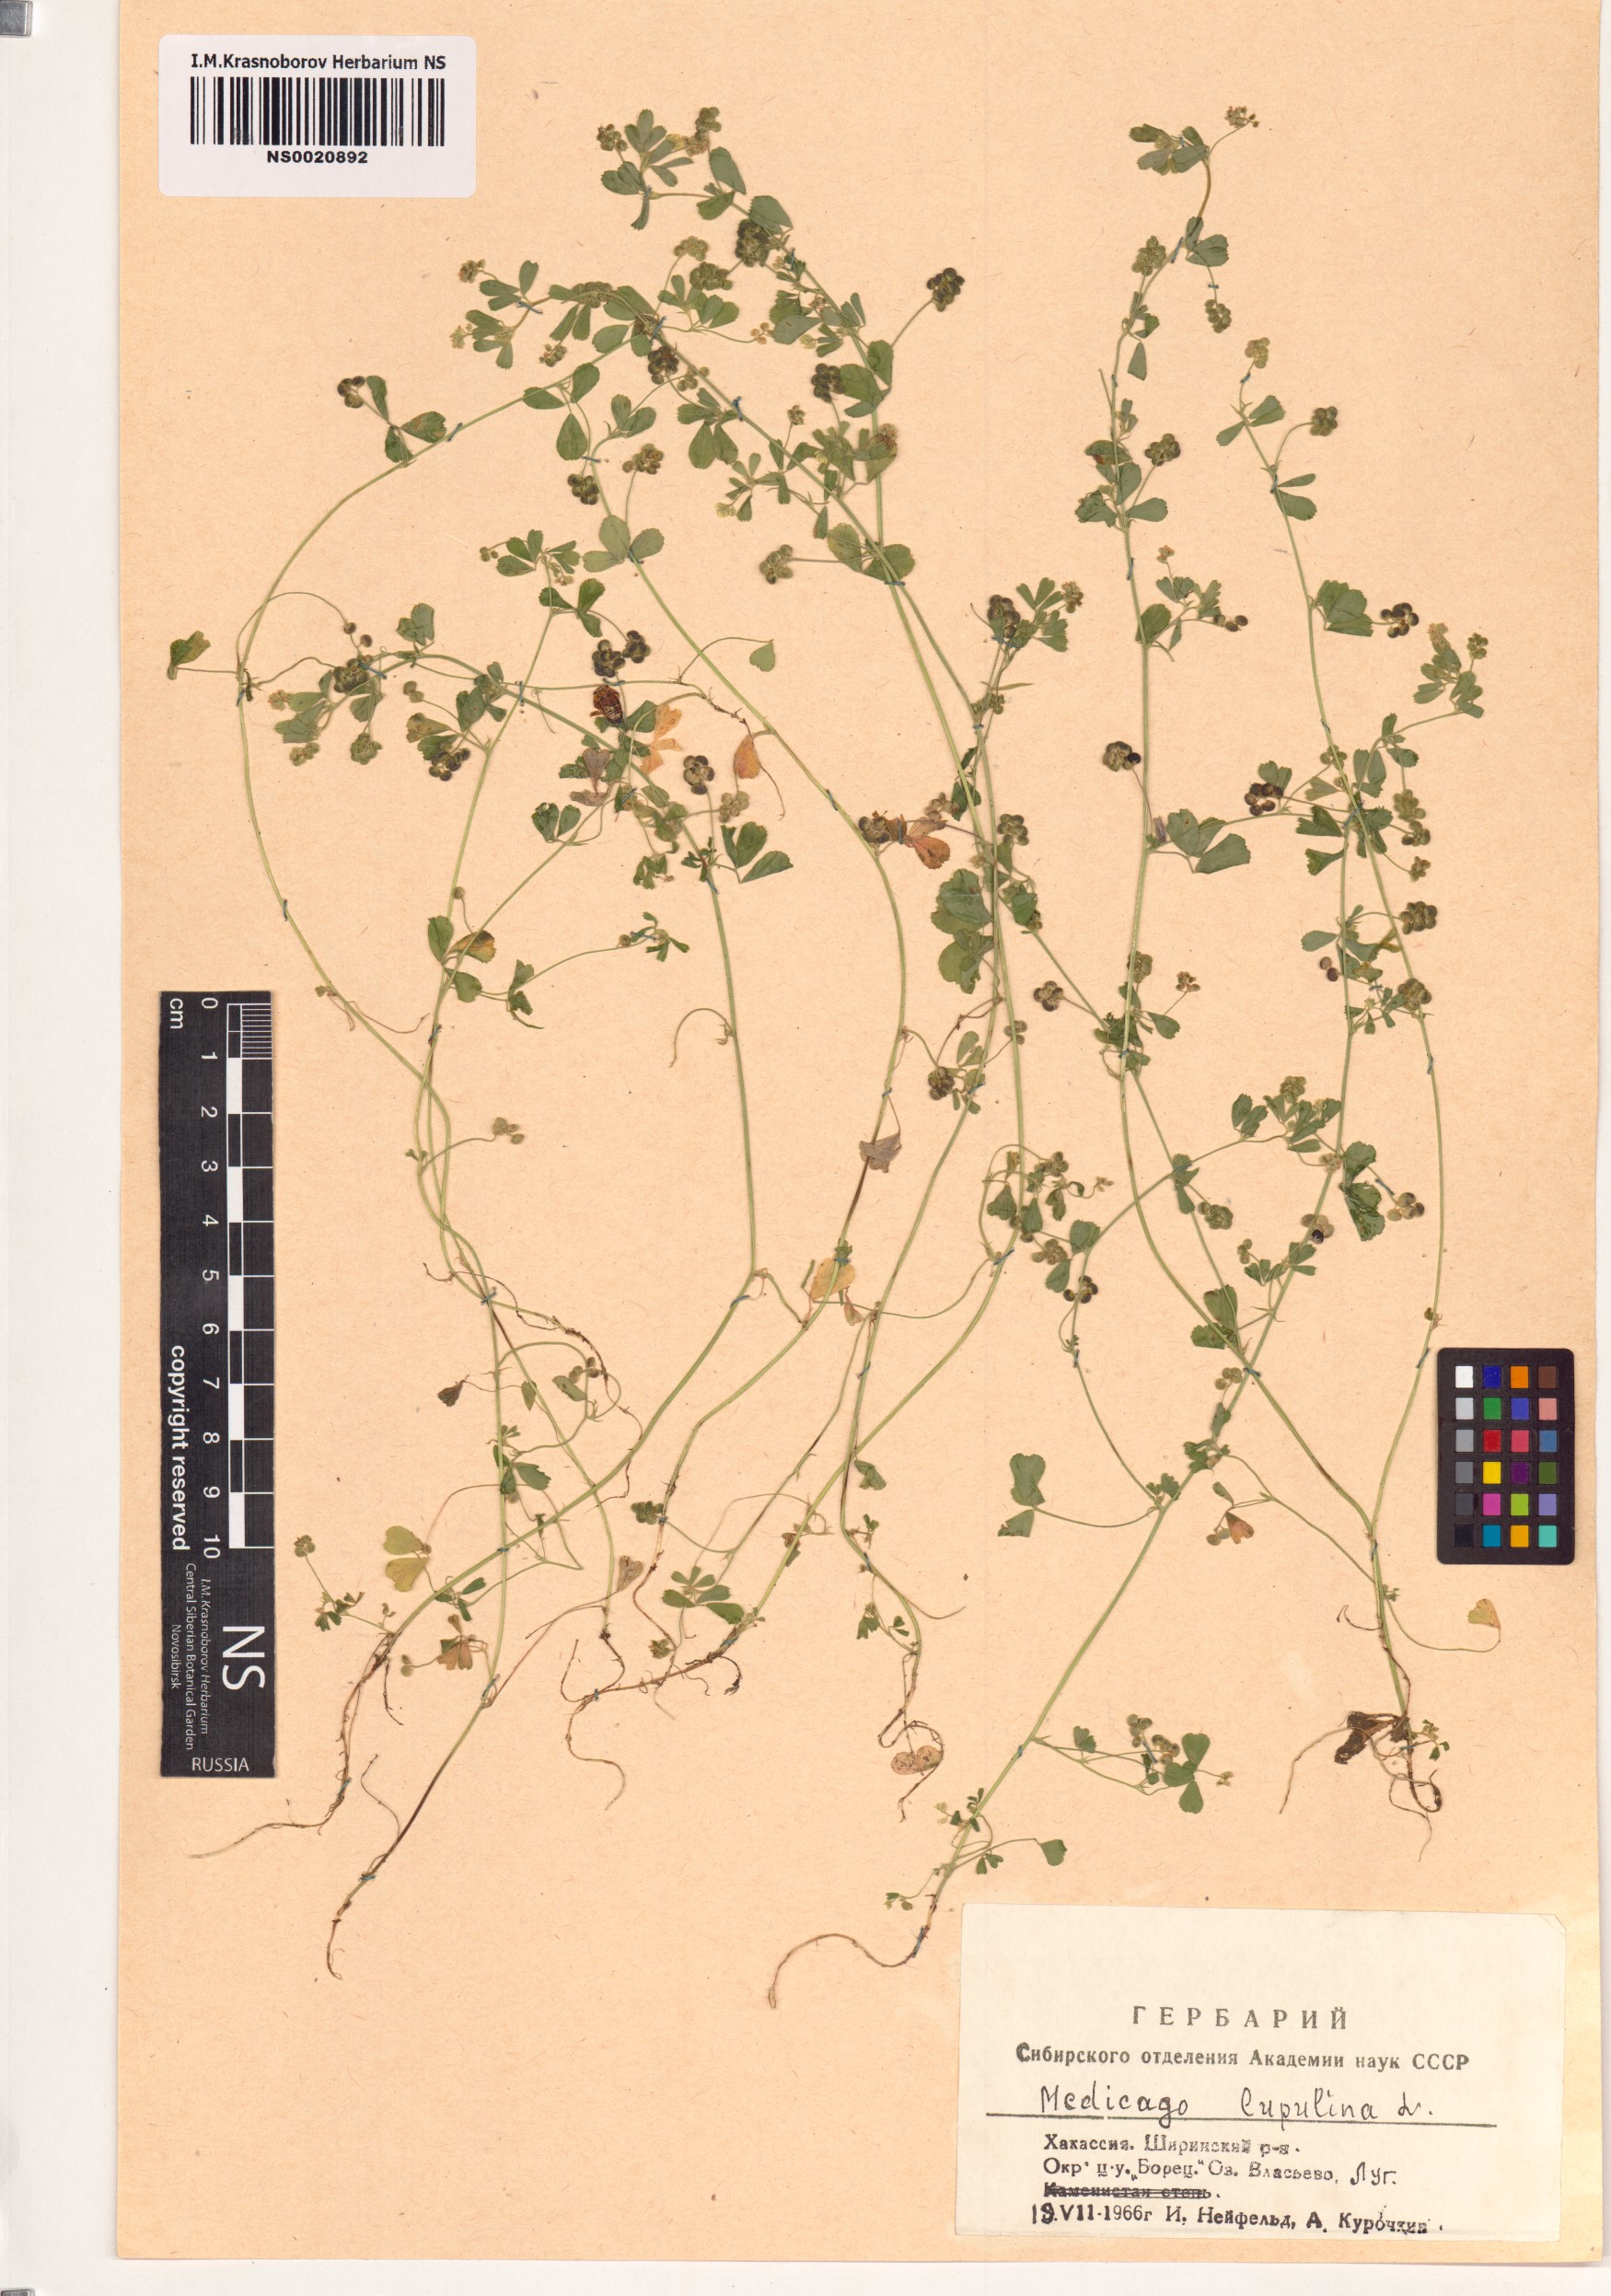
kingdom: Plantae
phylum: Tracheophyta
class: Magnoliopsida
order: Fabales
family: Fabaceae
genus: Medicago
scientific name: Medicago lupulina
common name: Black medick
